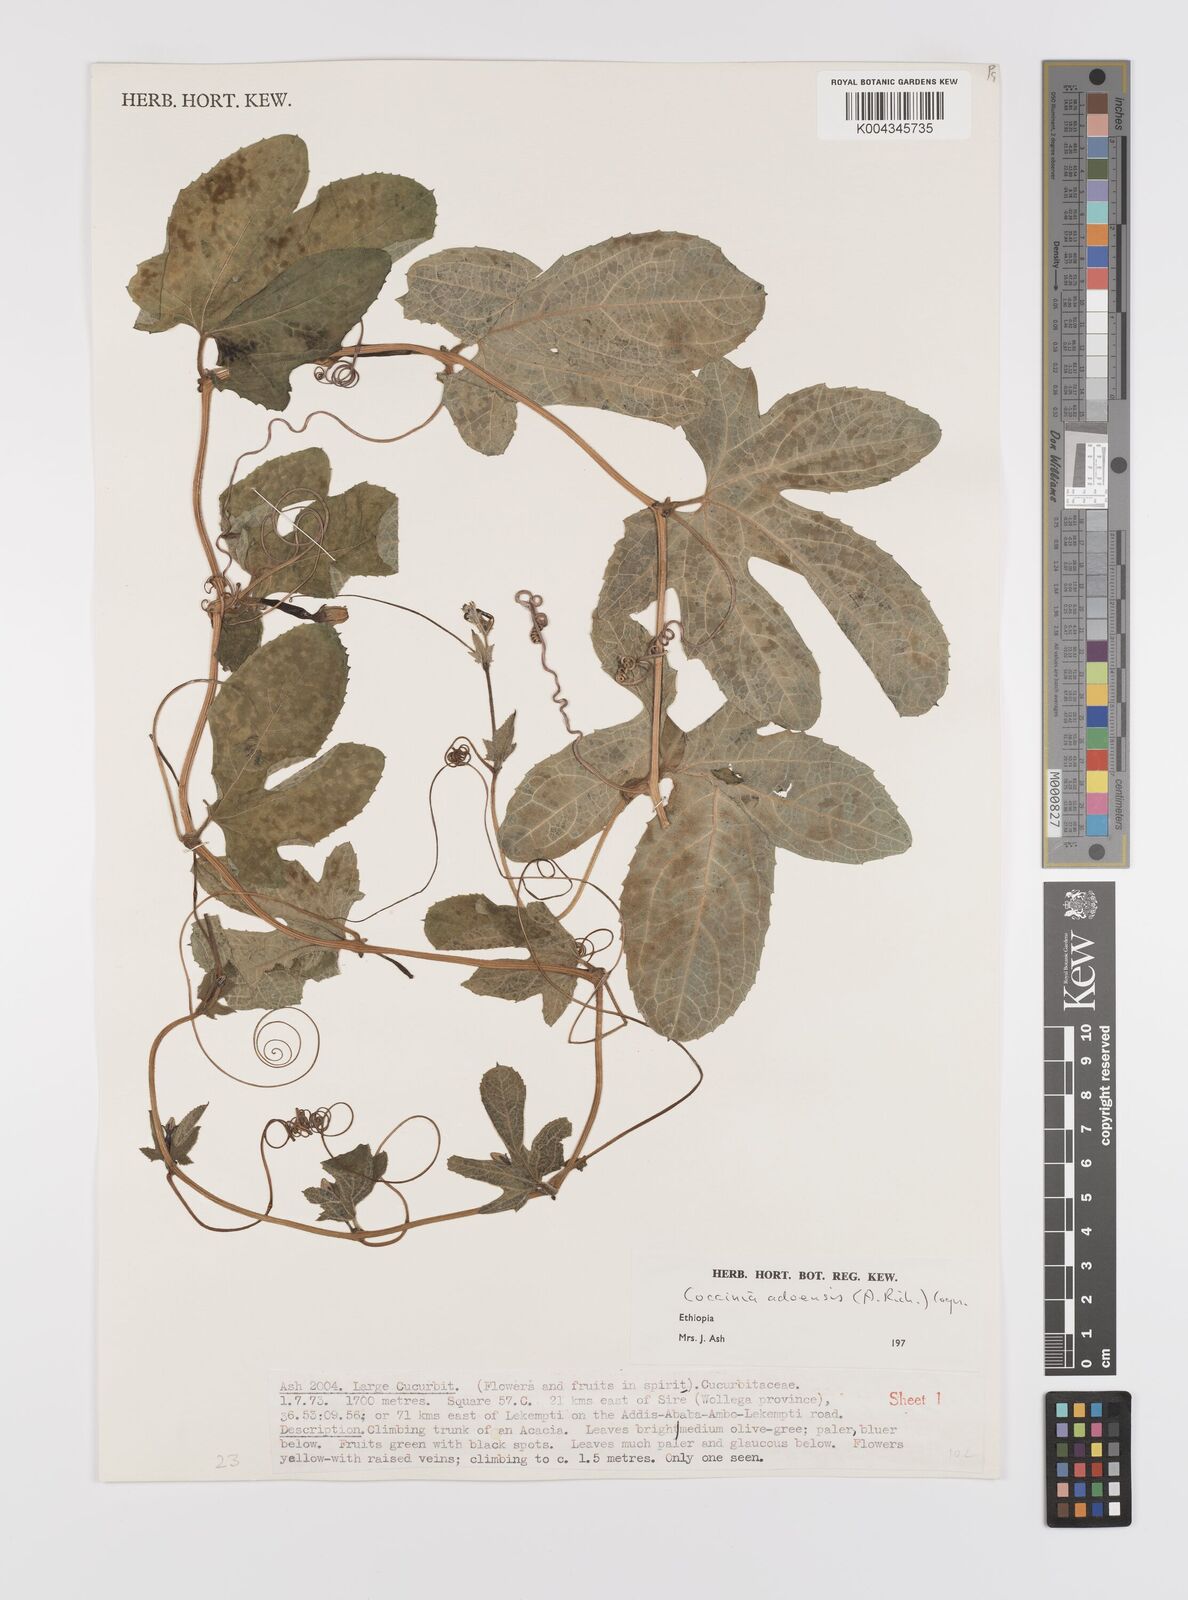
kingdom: Plantae
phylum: Tracheophyta
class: Magnoliopsida
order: Cucurbitales
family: Cucurbitaceae
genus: Coccinia
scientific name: Coccinia adoensis
